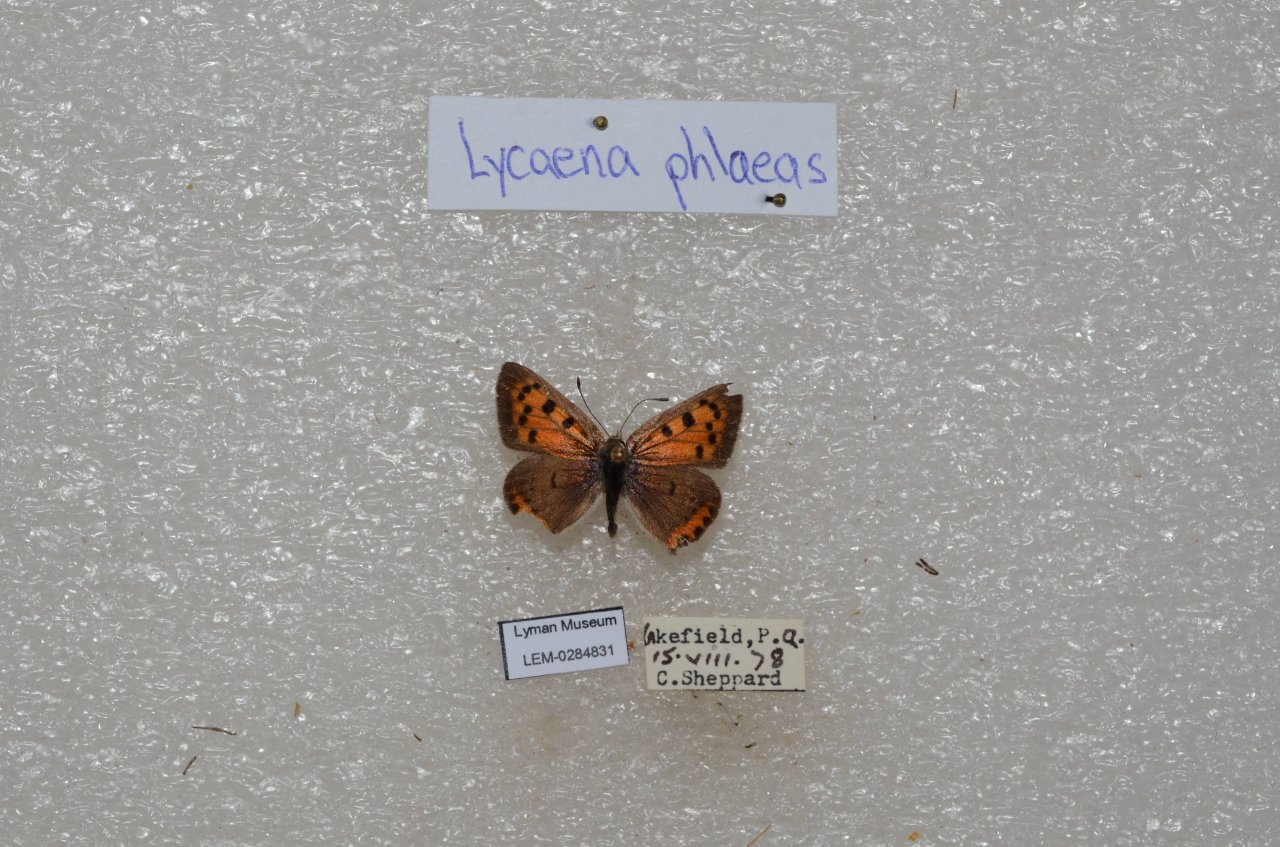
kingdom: Animalia
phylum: Arthropoda
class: Insecta
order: Lepidoptera
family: Lycaenidae
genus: Lycaena
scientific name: Lycaena phlaeas
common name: American Copper
